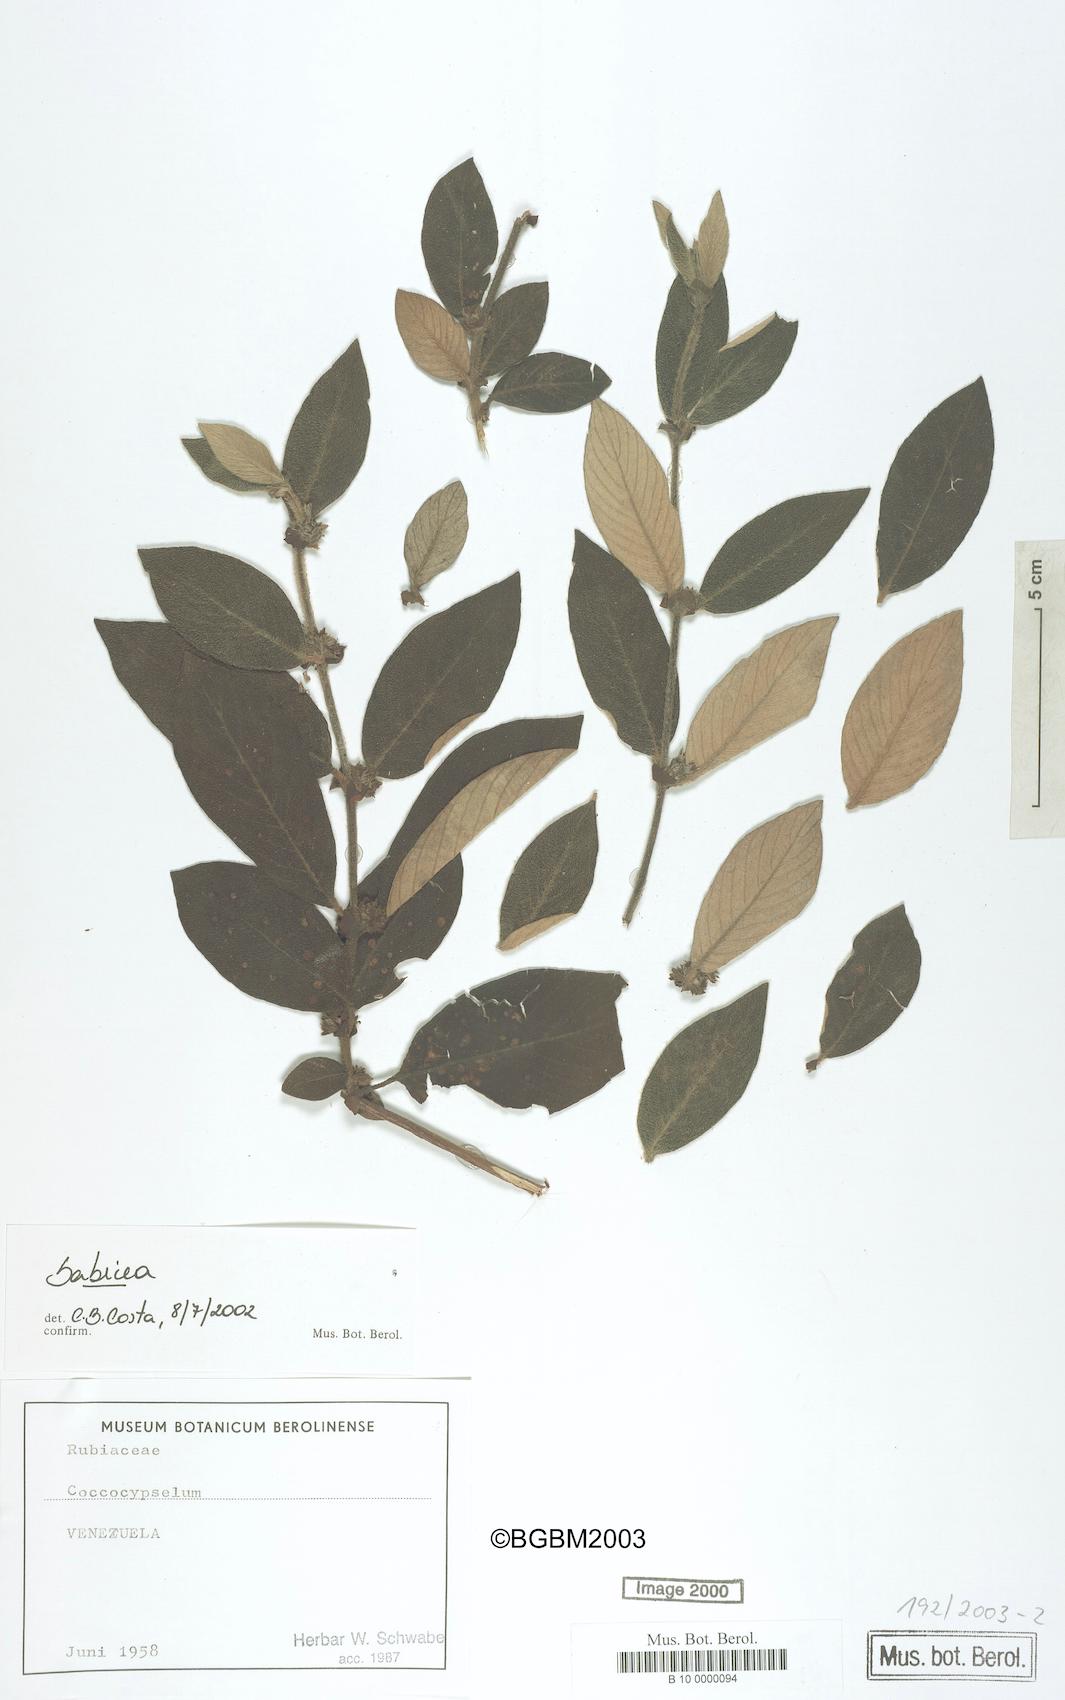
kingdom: Plantae
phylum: Tracheophyta
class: Magnoliopsida
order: Gentianales
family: Rubiaceae
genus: Sabicea
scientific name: Sabicea
